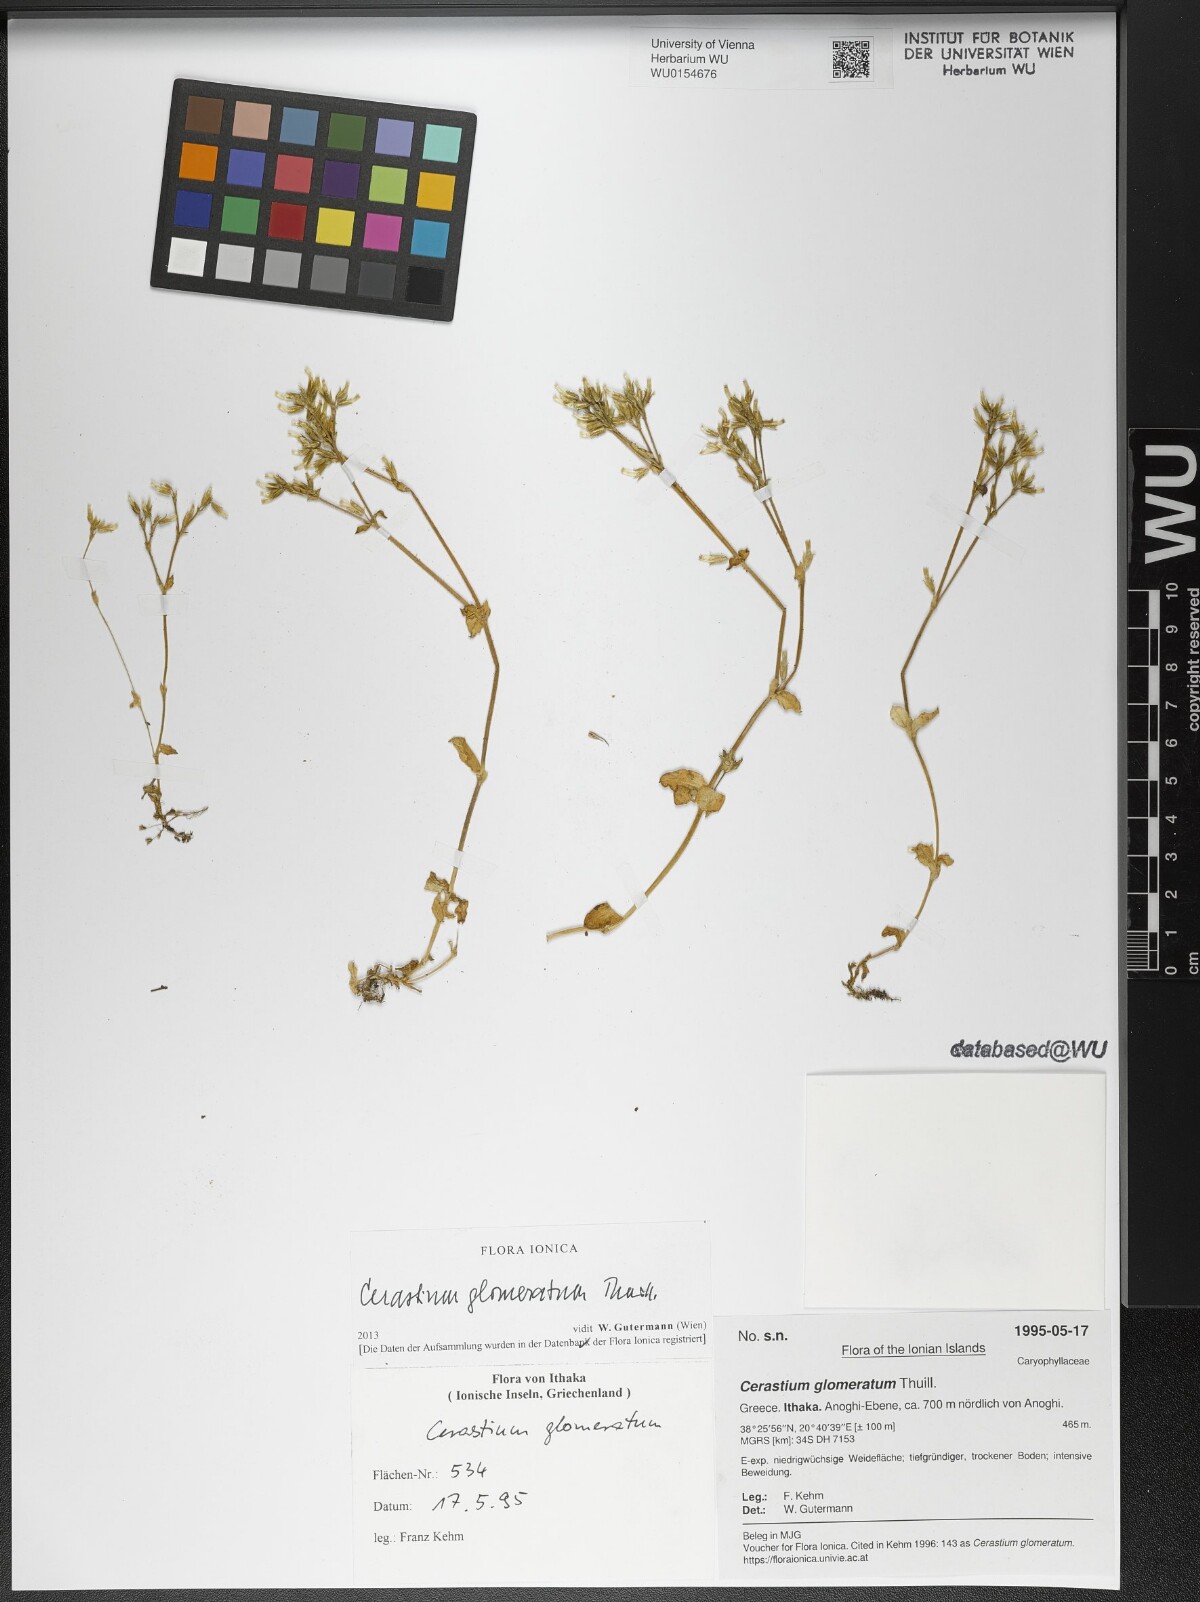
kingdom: Plantae
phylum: Tracheophyta
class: Magnoliopsida
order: Caryophyllales
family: Caryophyllaceae
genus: Cerastium
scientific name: Cerastium glomeratum
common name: Sticky chickweed
